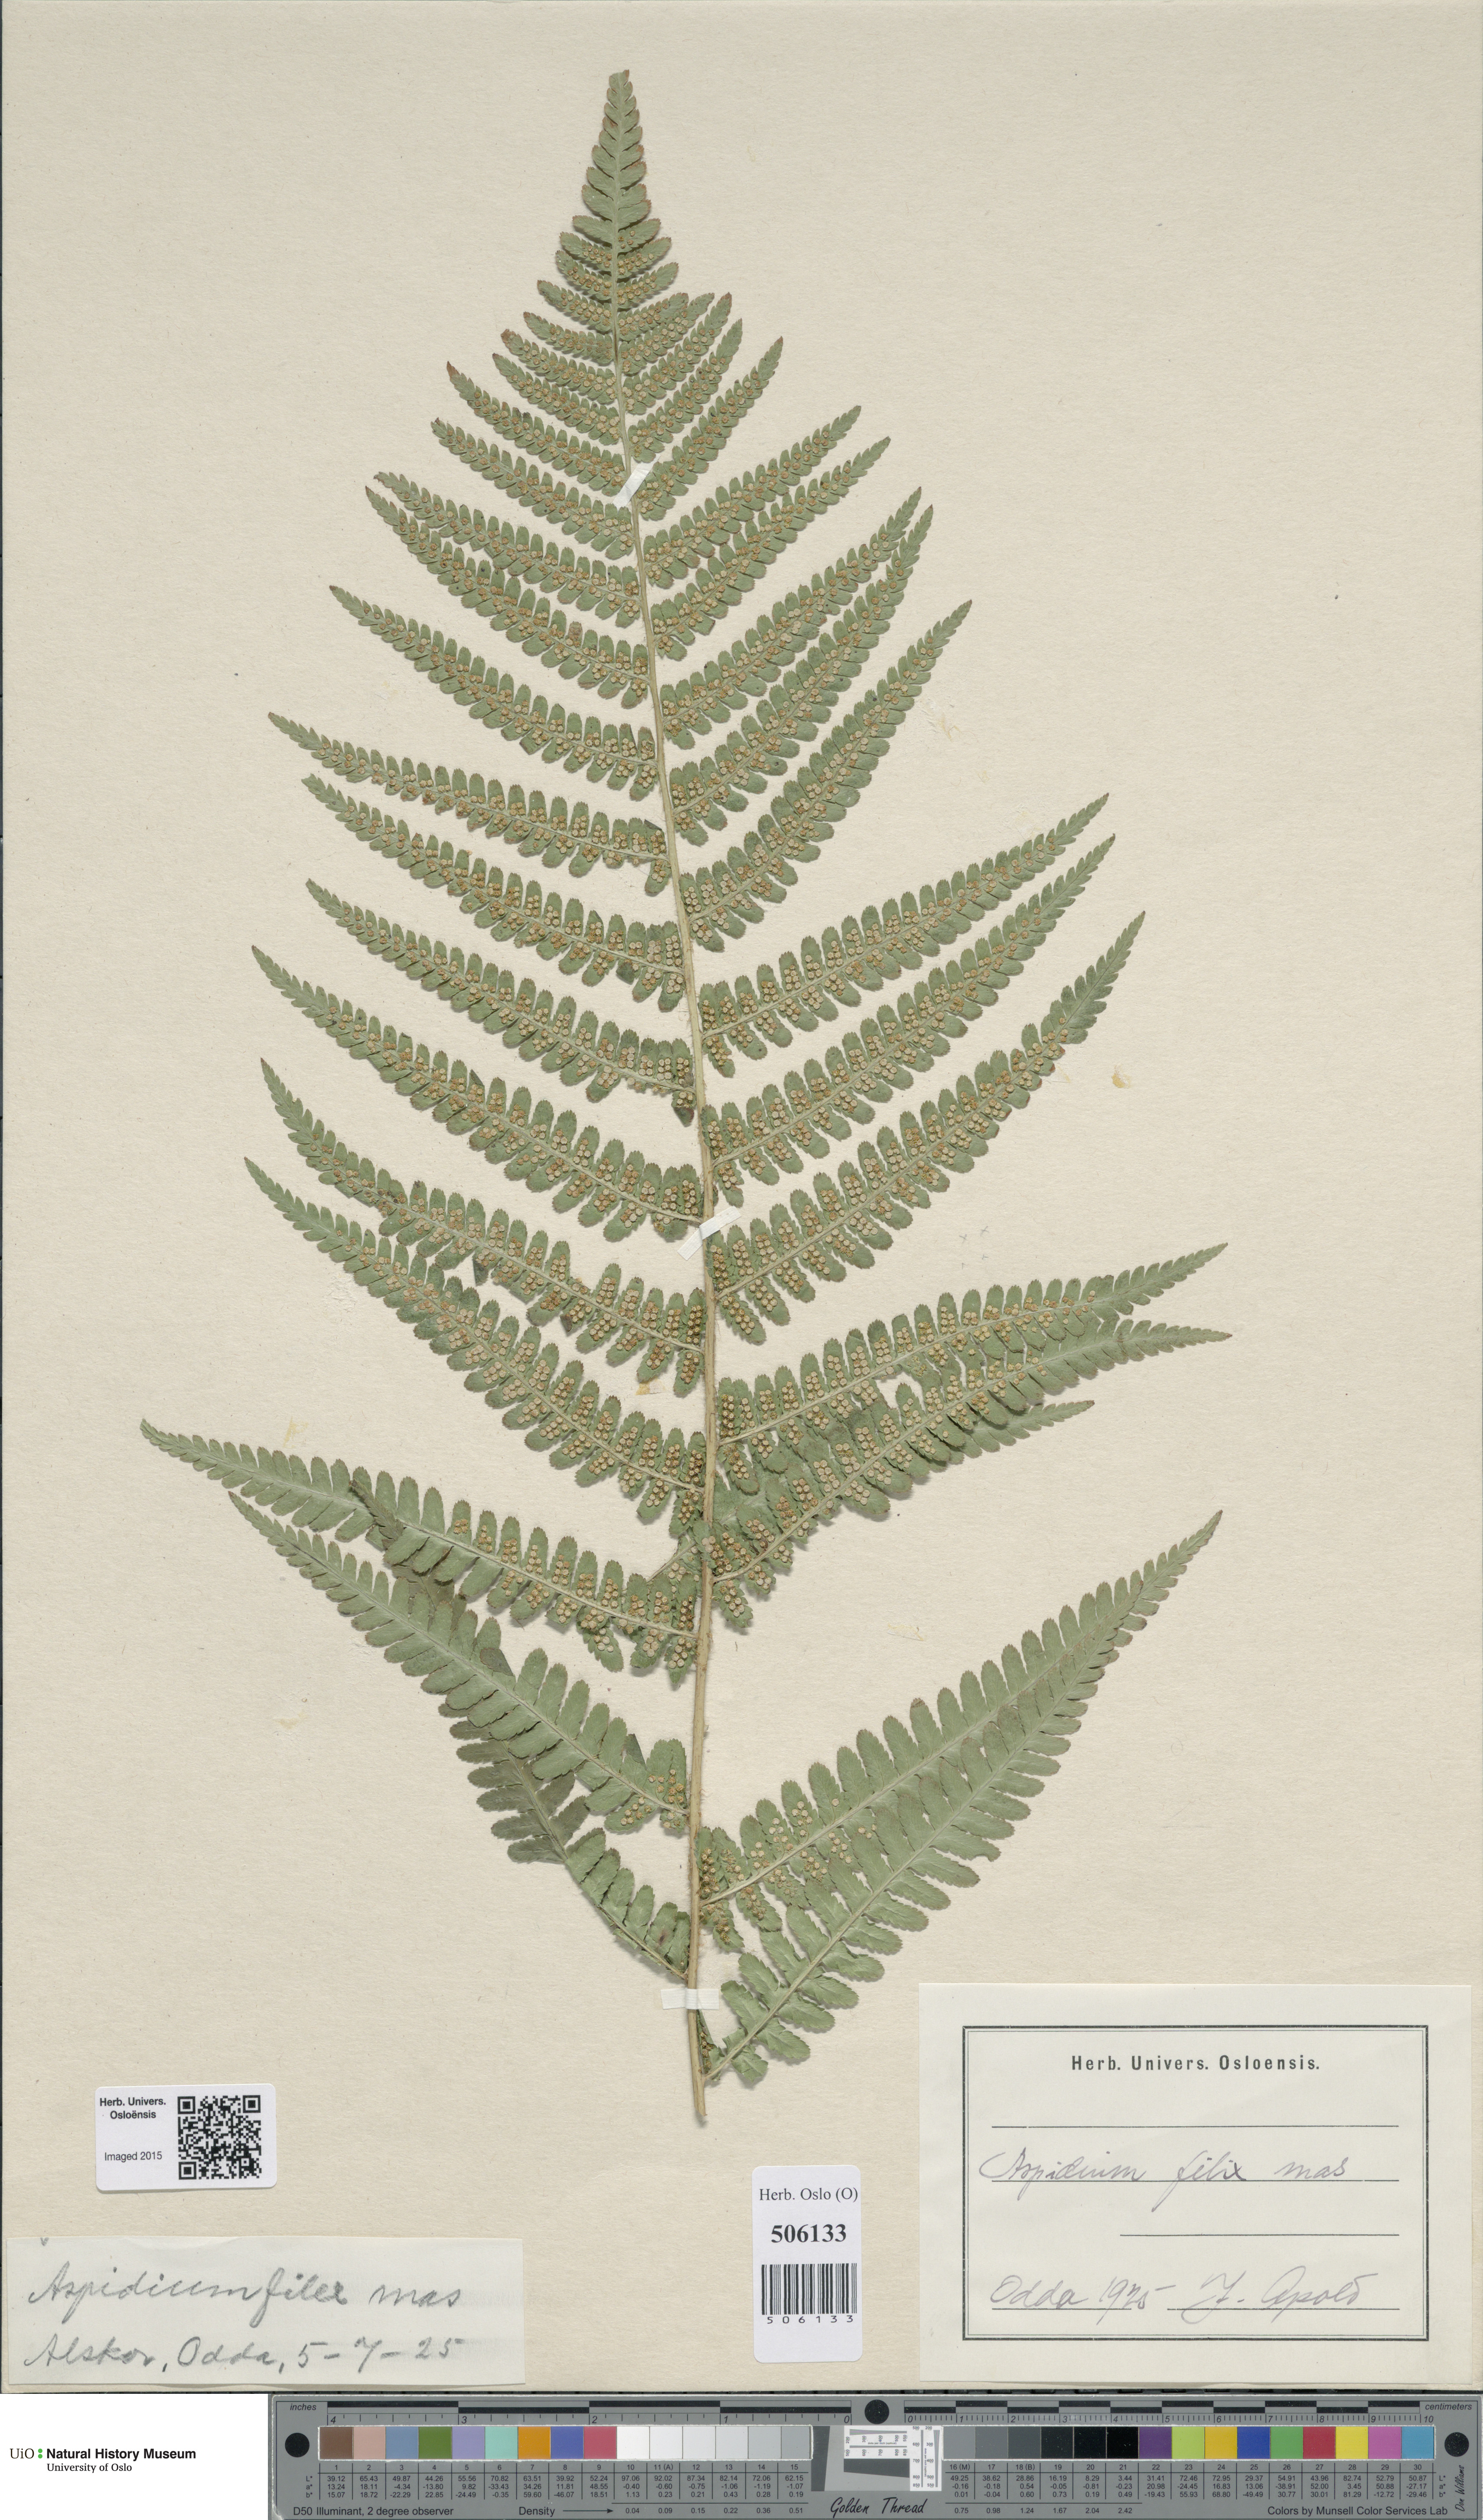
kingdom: Plantae
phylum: Tracheophyta
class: Polypodiopsida
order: Polypodiales
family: Dryopteridaceae
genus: Dryopteris
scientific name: Dryopteris filix-mas
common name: Male fern
